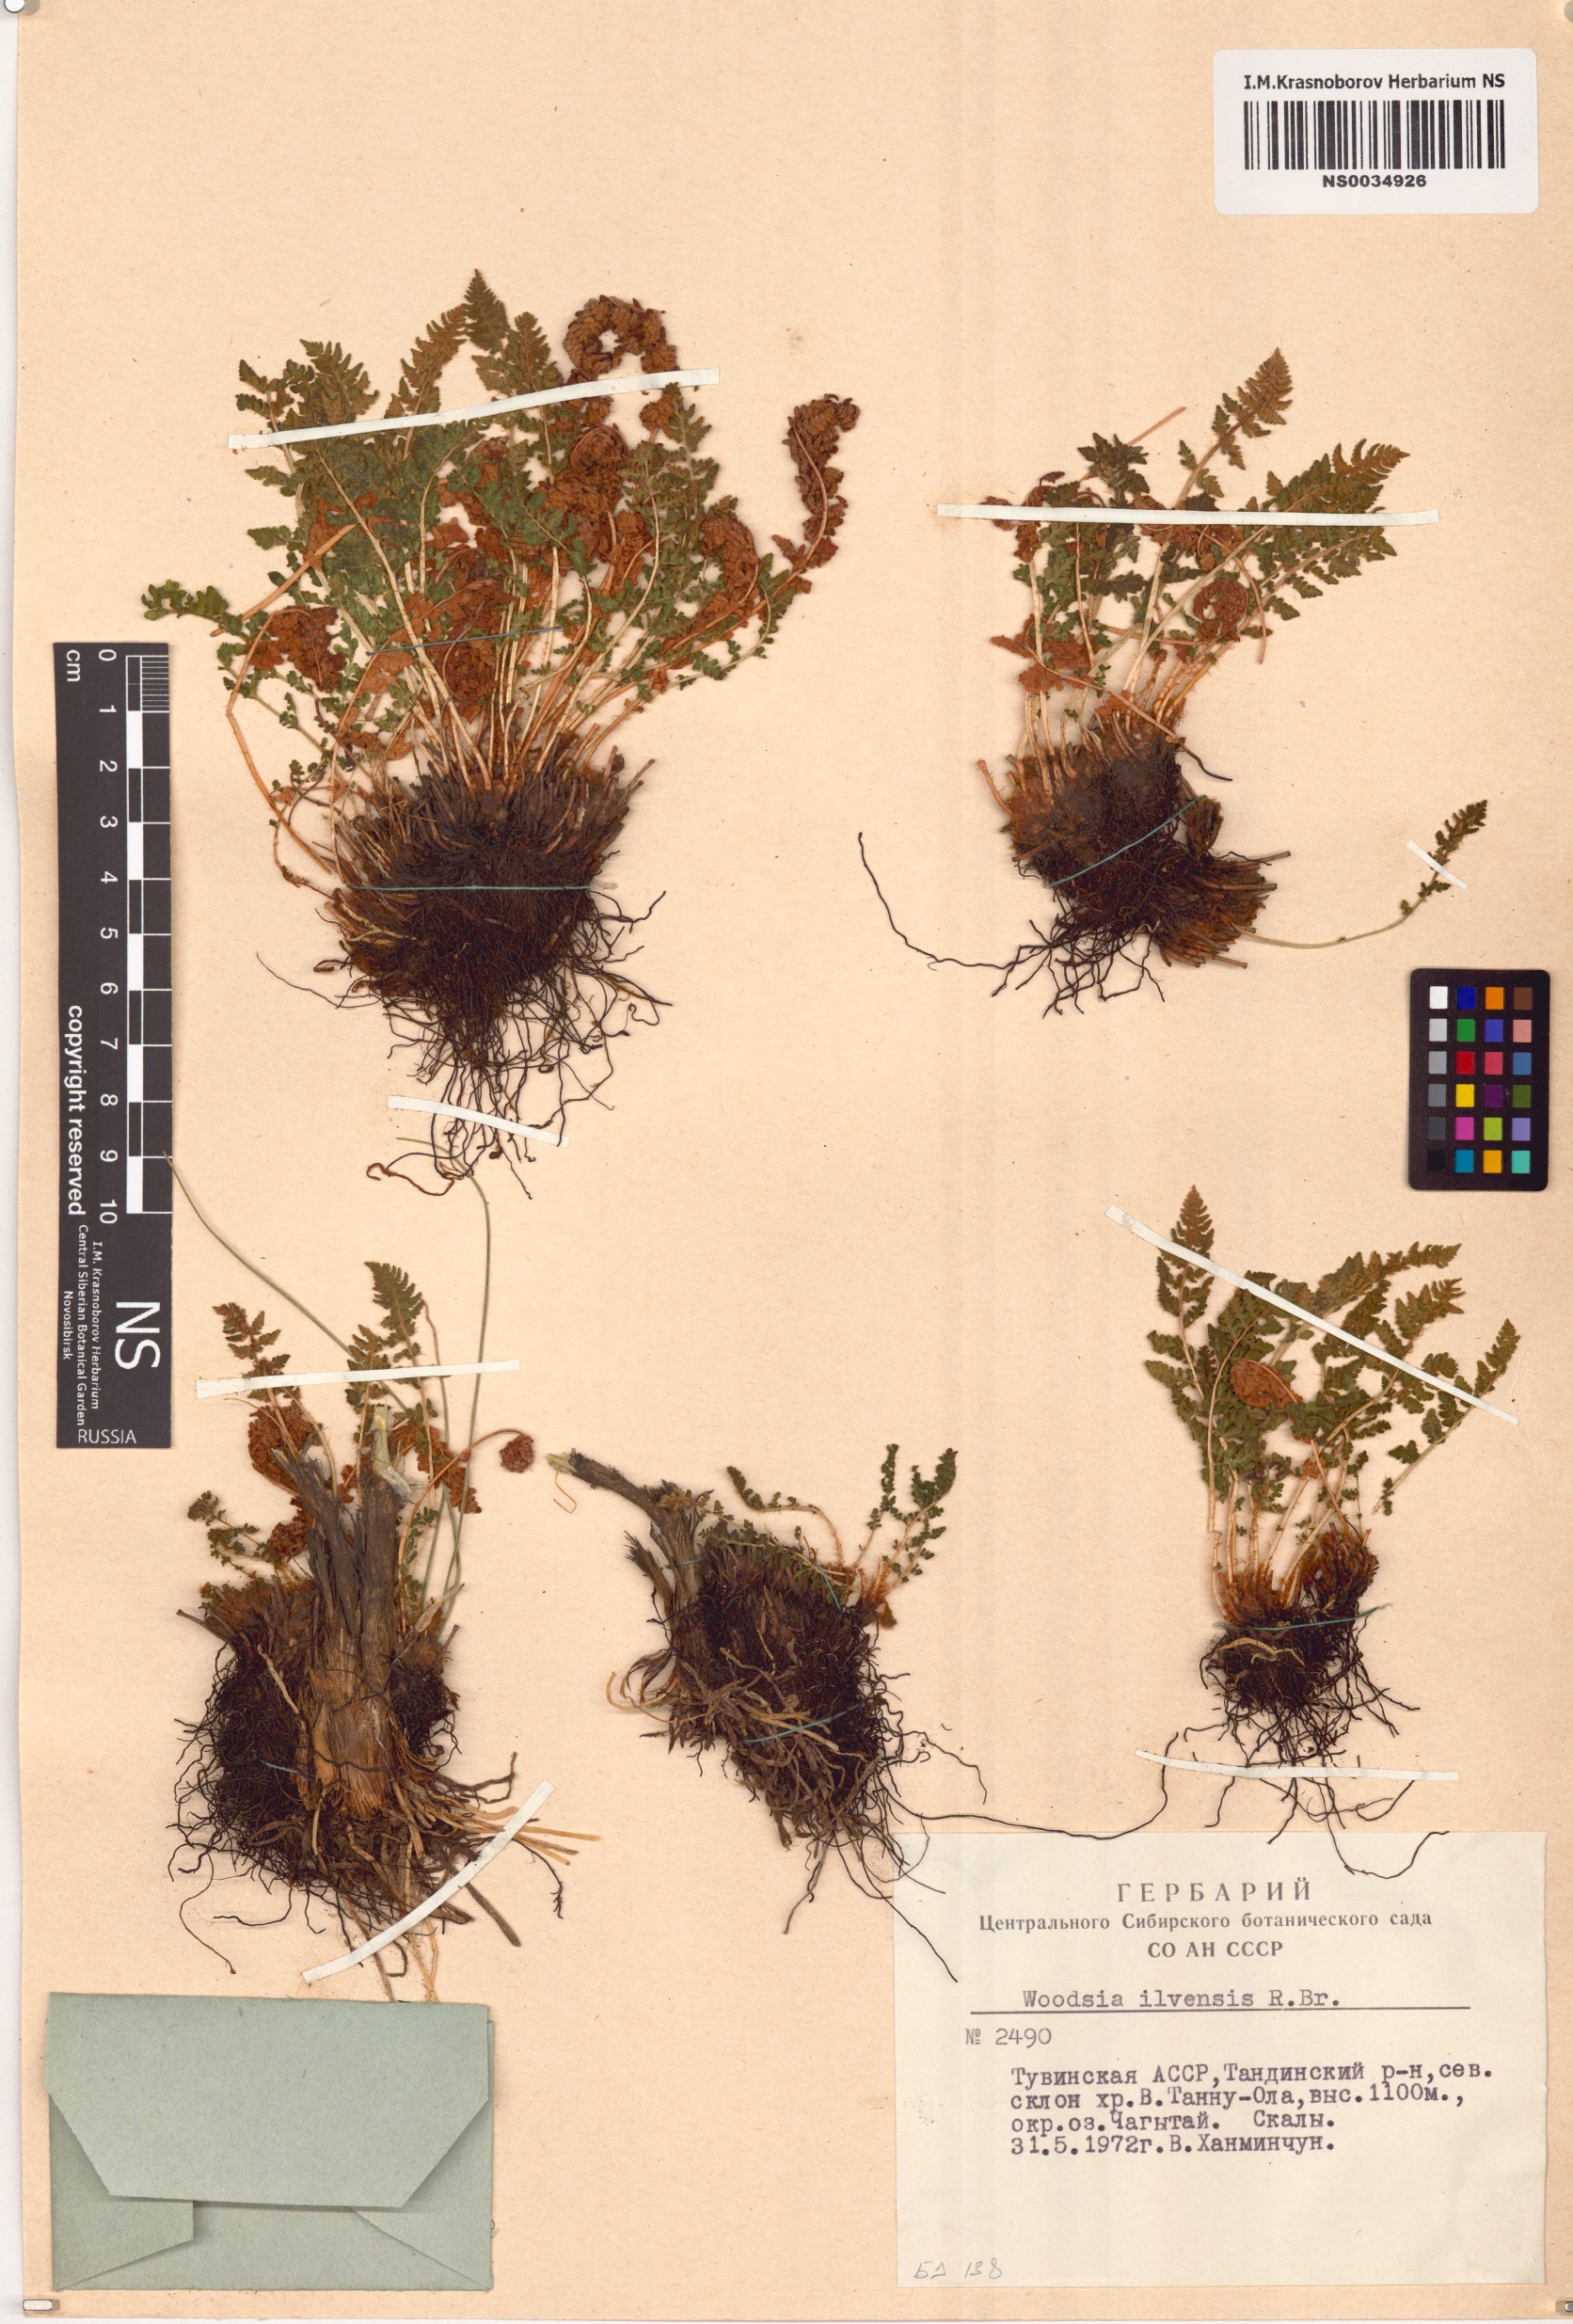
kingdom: Plantae
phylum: Tracheophyta
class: Polypodiopsida
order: Polypodiales
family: Woodsiaceae
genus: Woodsia
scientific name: Woodsia ilvensis
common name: Fragrant woodsia
